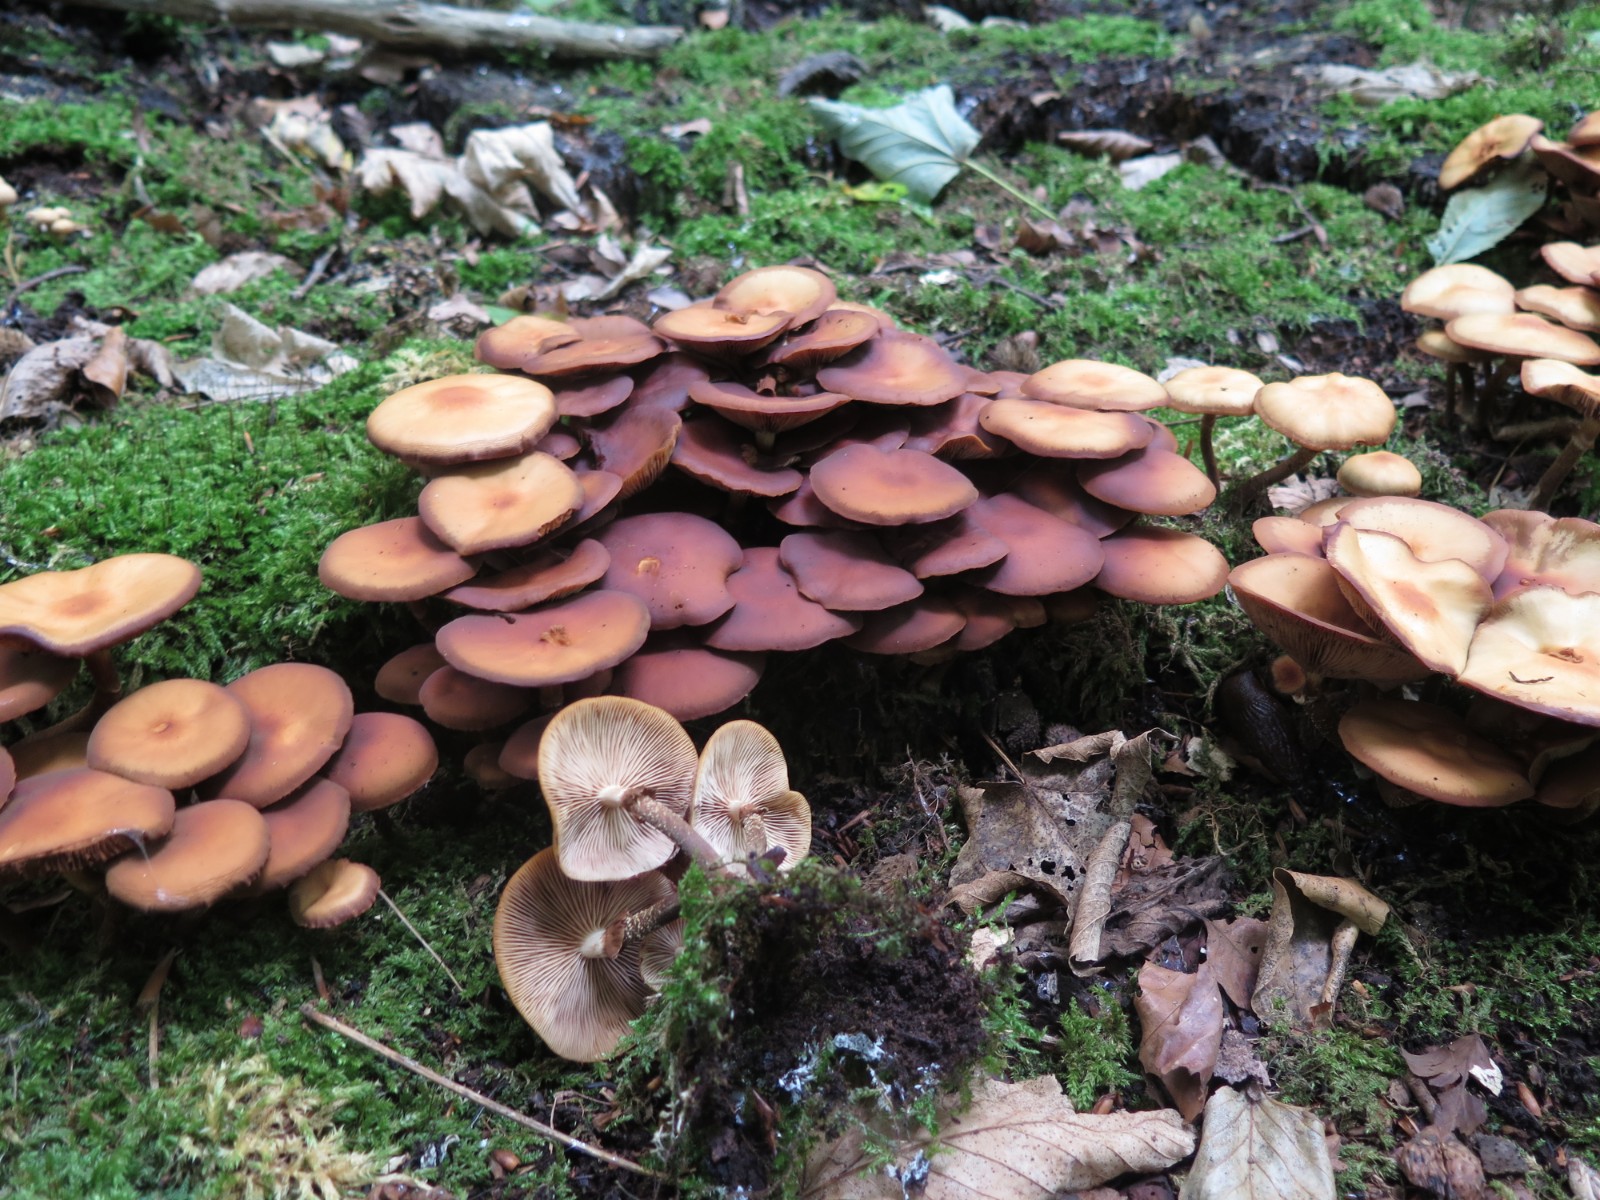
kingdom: Fungi
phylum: Basidiomycota
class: Agaricomycetes
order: Agaricales
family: Strophariaceae
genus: Kuehneromyces
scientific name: Kuehneromyces mutabilis
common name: foranderlig skælhat
